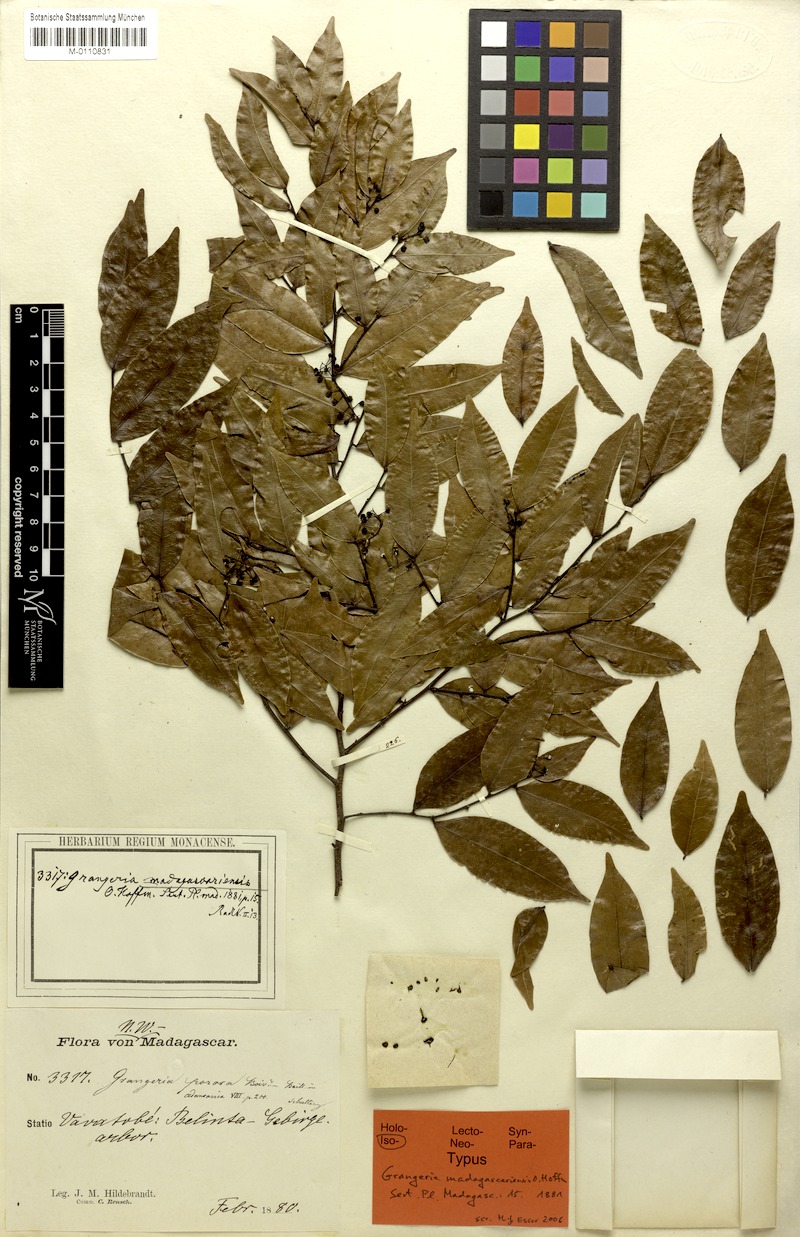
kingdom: Plantae
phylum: Tracheophyta
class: Magnoliopsida
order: Malpighiales
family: Chrysobalanaceae
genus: Grangeria
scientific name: Grangeria porosa
